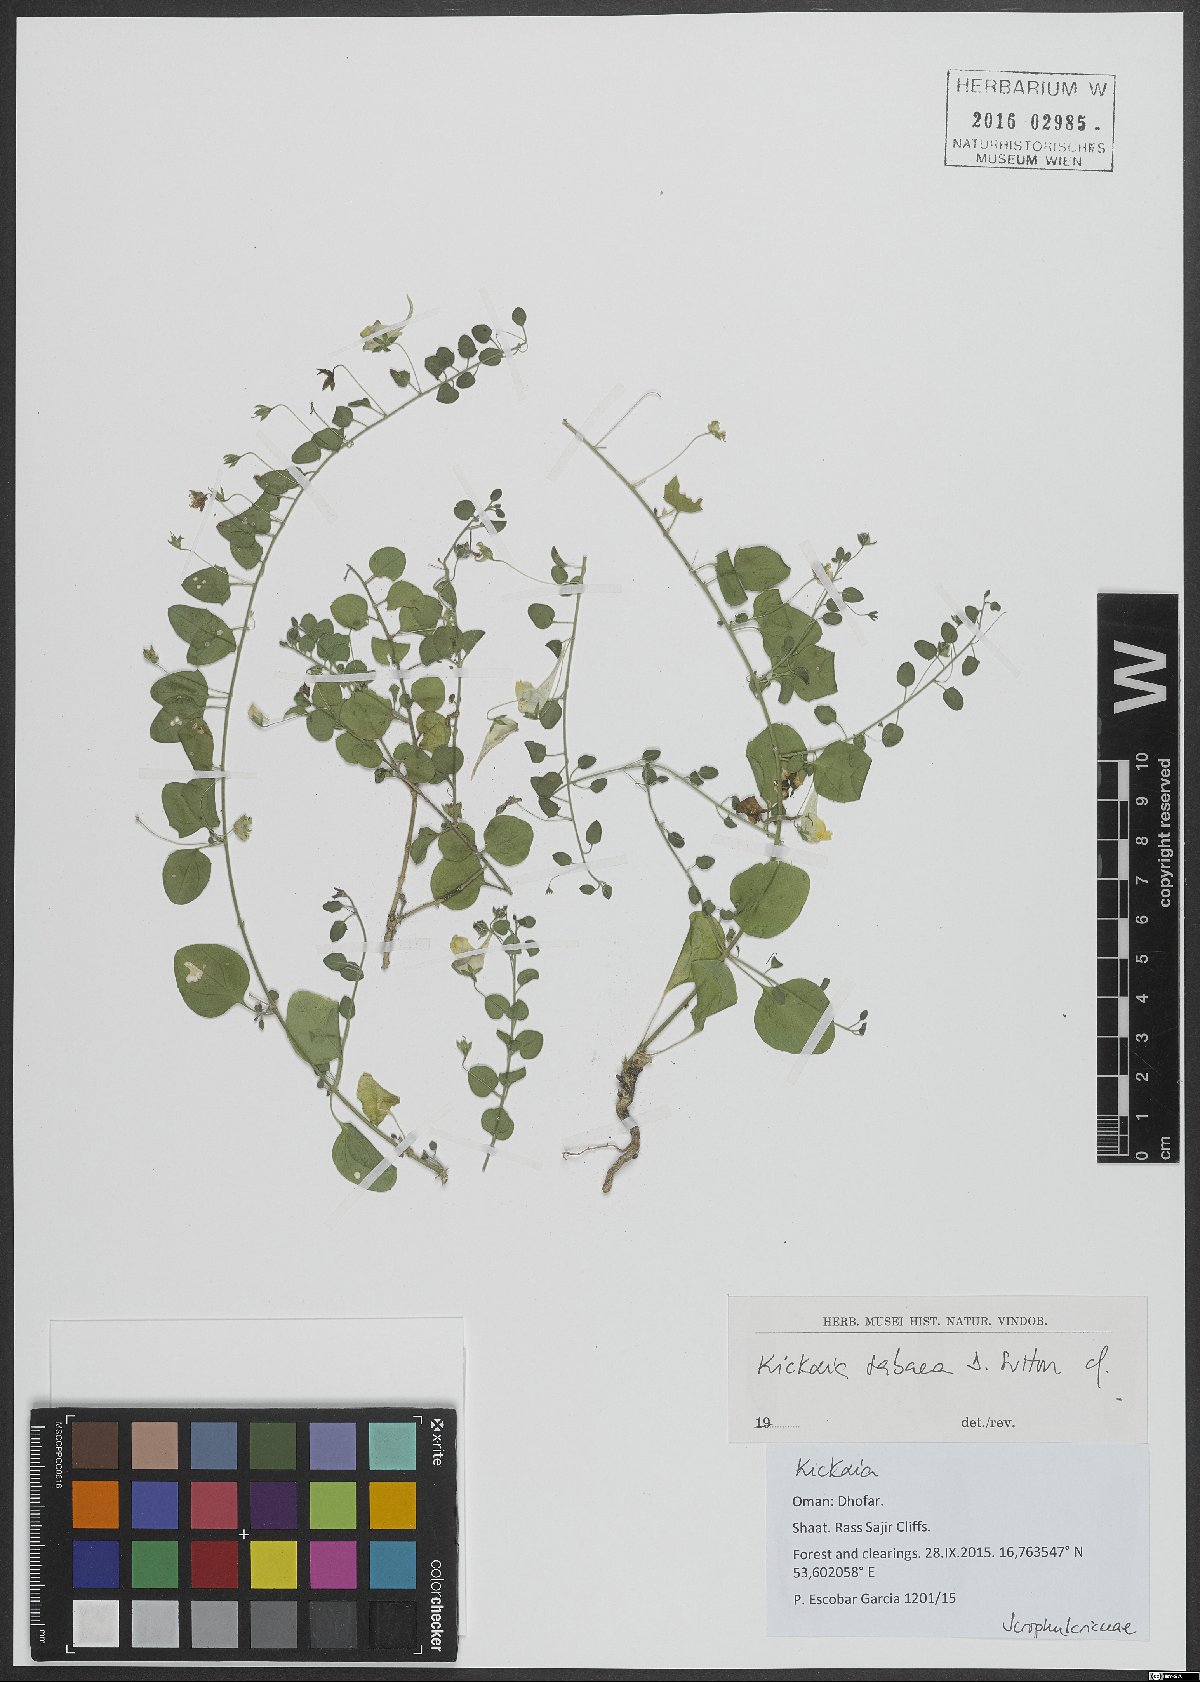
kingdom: Plantae
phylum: Tracheophyta
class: Magnoliopsida
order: Lamiales
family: Plantaginaceae
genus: Kickxia
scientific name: Kickxia sabarum
